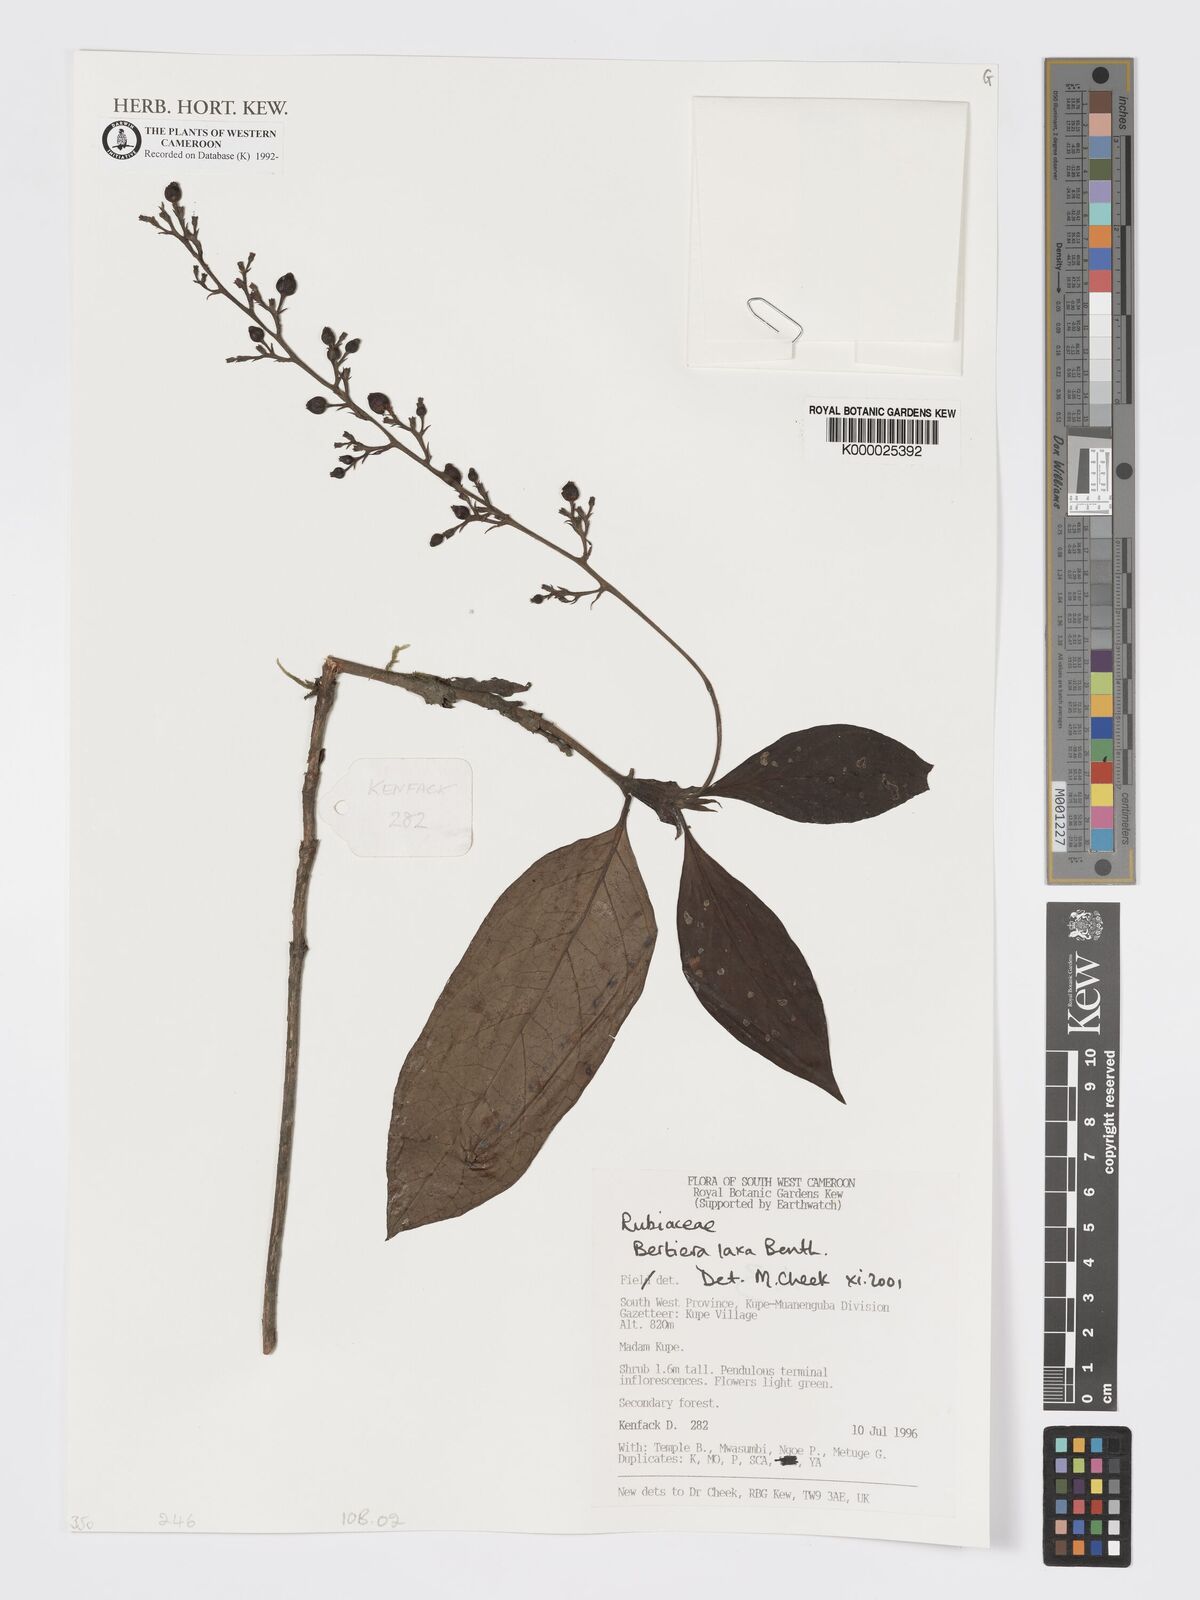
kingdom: Plantae
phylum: Tracheophyta
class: Magnoliopsida
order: Gentianales
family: Rubiaceae
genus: Bertiera
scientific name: Bertiera laxa
